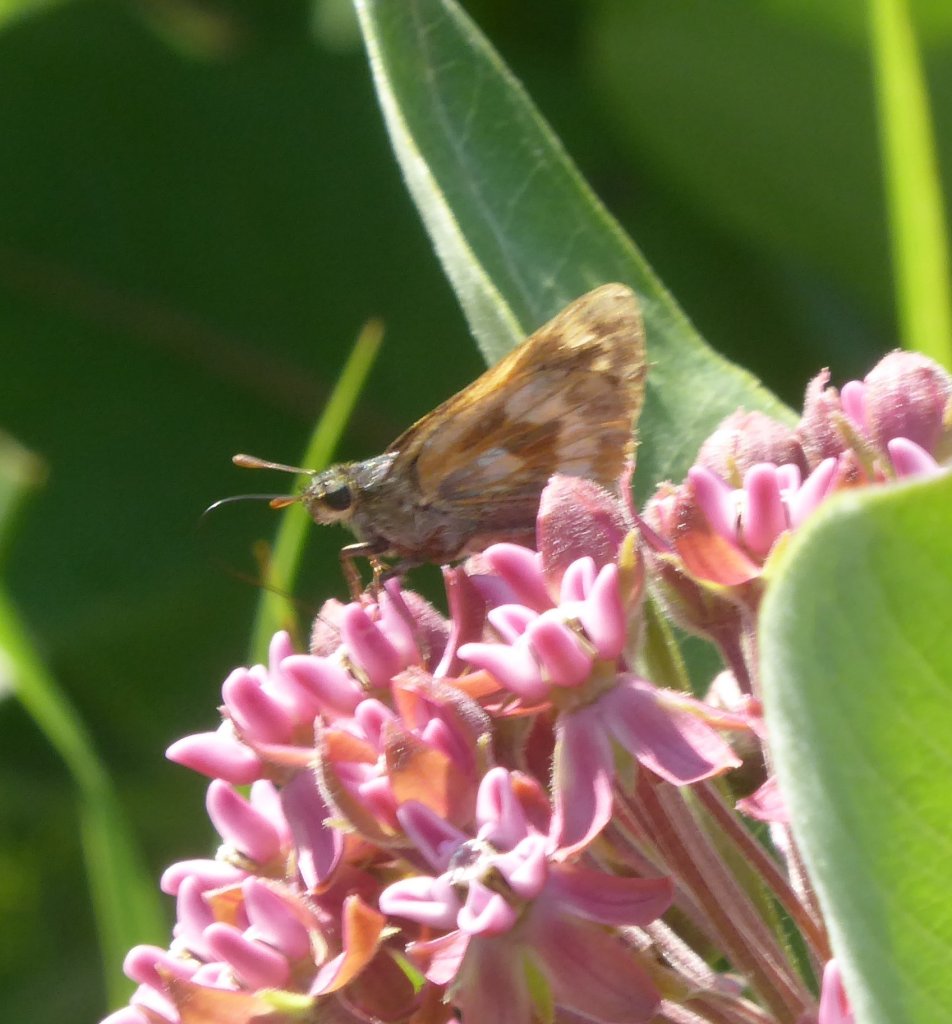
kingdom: Animalia
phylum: Arthropoda
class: Insecta
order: Lepidoptera
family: Hesperiidae
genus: Polites
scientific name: Polites
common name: Long Dash Skipper
